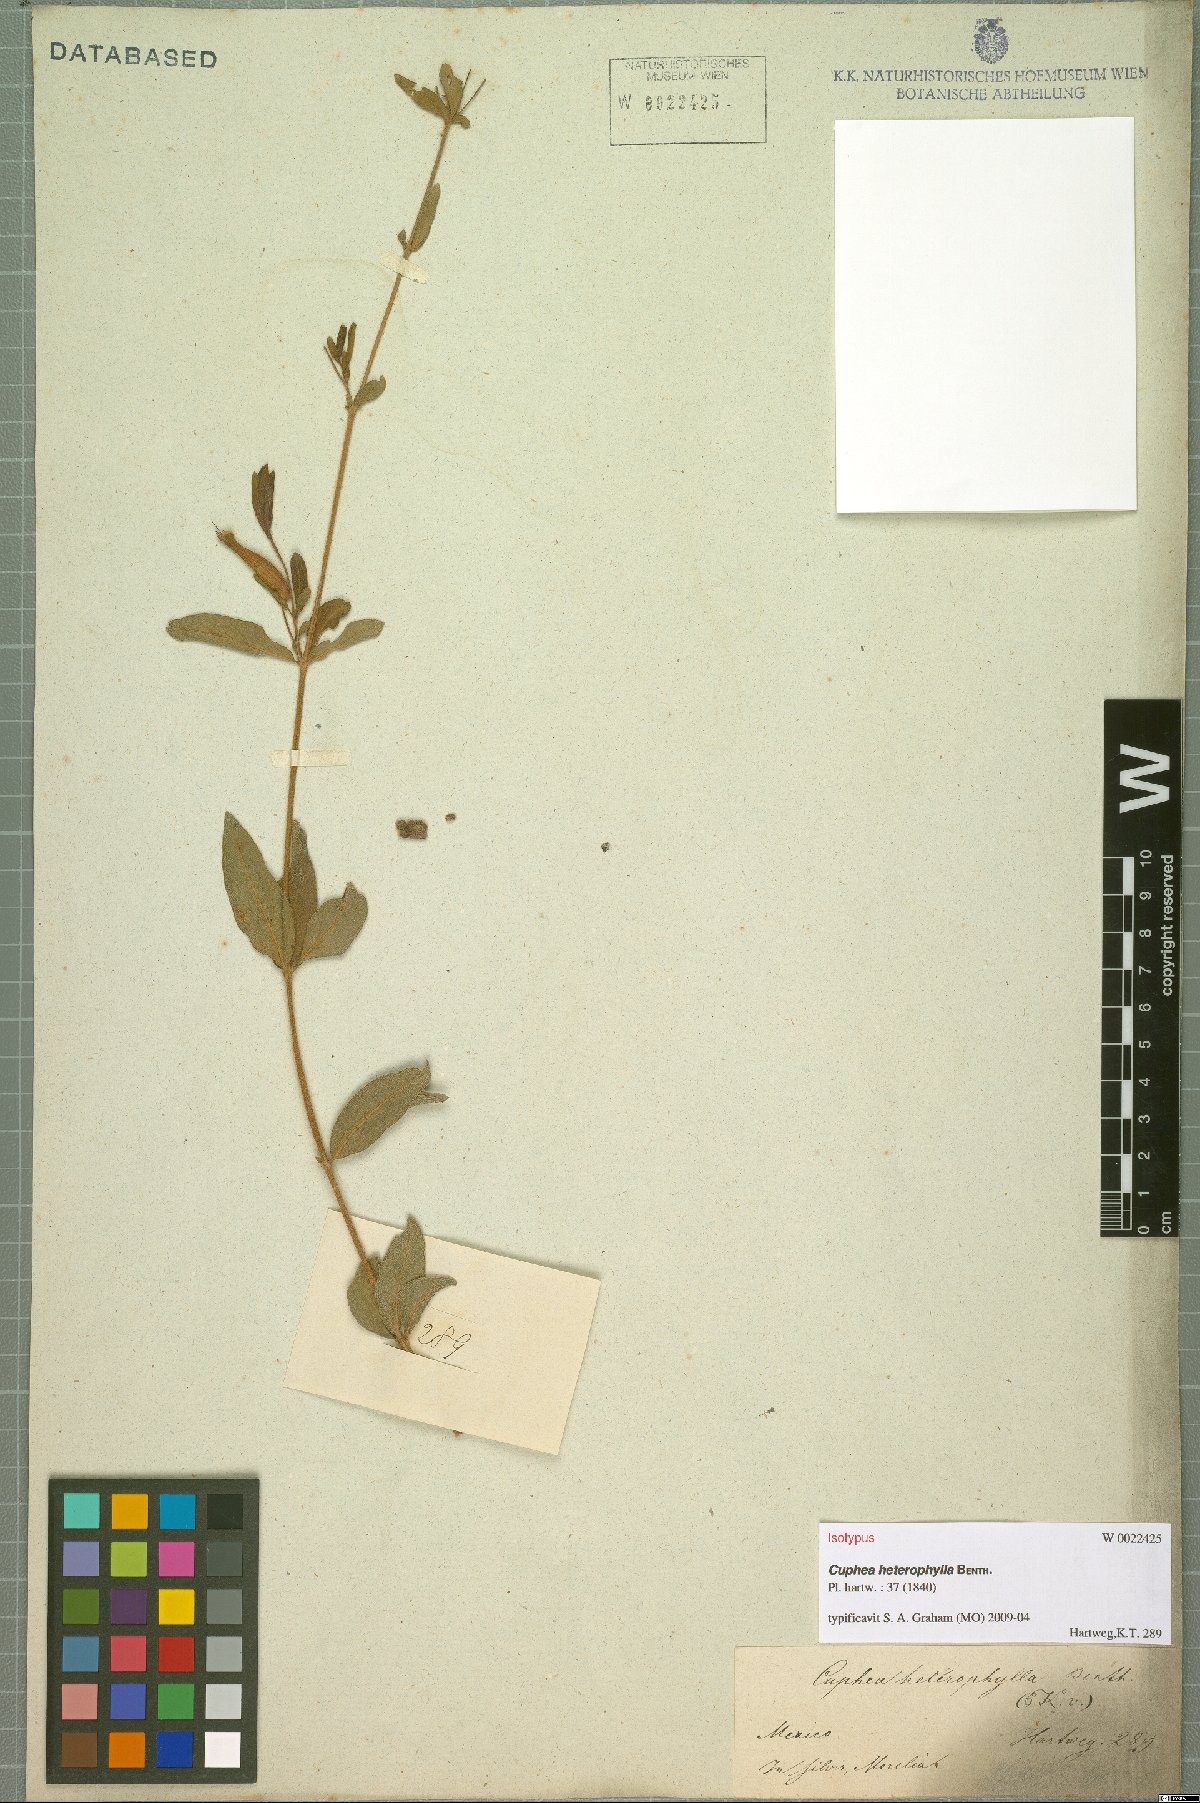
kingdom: Plantae
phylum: Tracheophyta
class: Magnoliopsida
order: Myrtales
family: Lythraceae
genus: Cuphea
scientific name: Cuphea heterophylla
